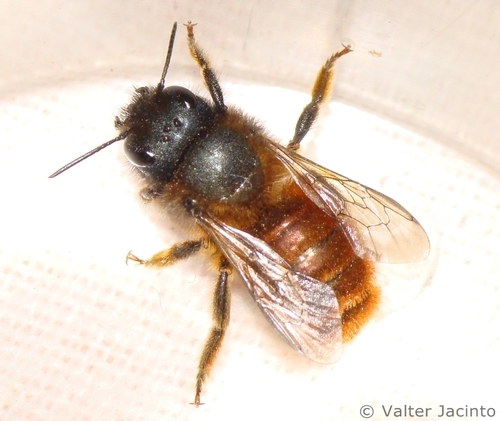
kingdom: Animalia
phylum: Arthropoda
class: Insecta
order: Hymenoptera
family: Megachilidae
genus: Osmia
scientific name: Osmia tricornis
